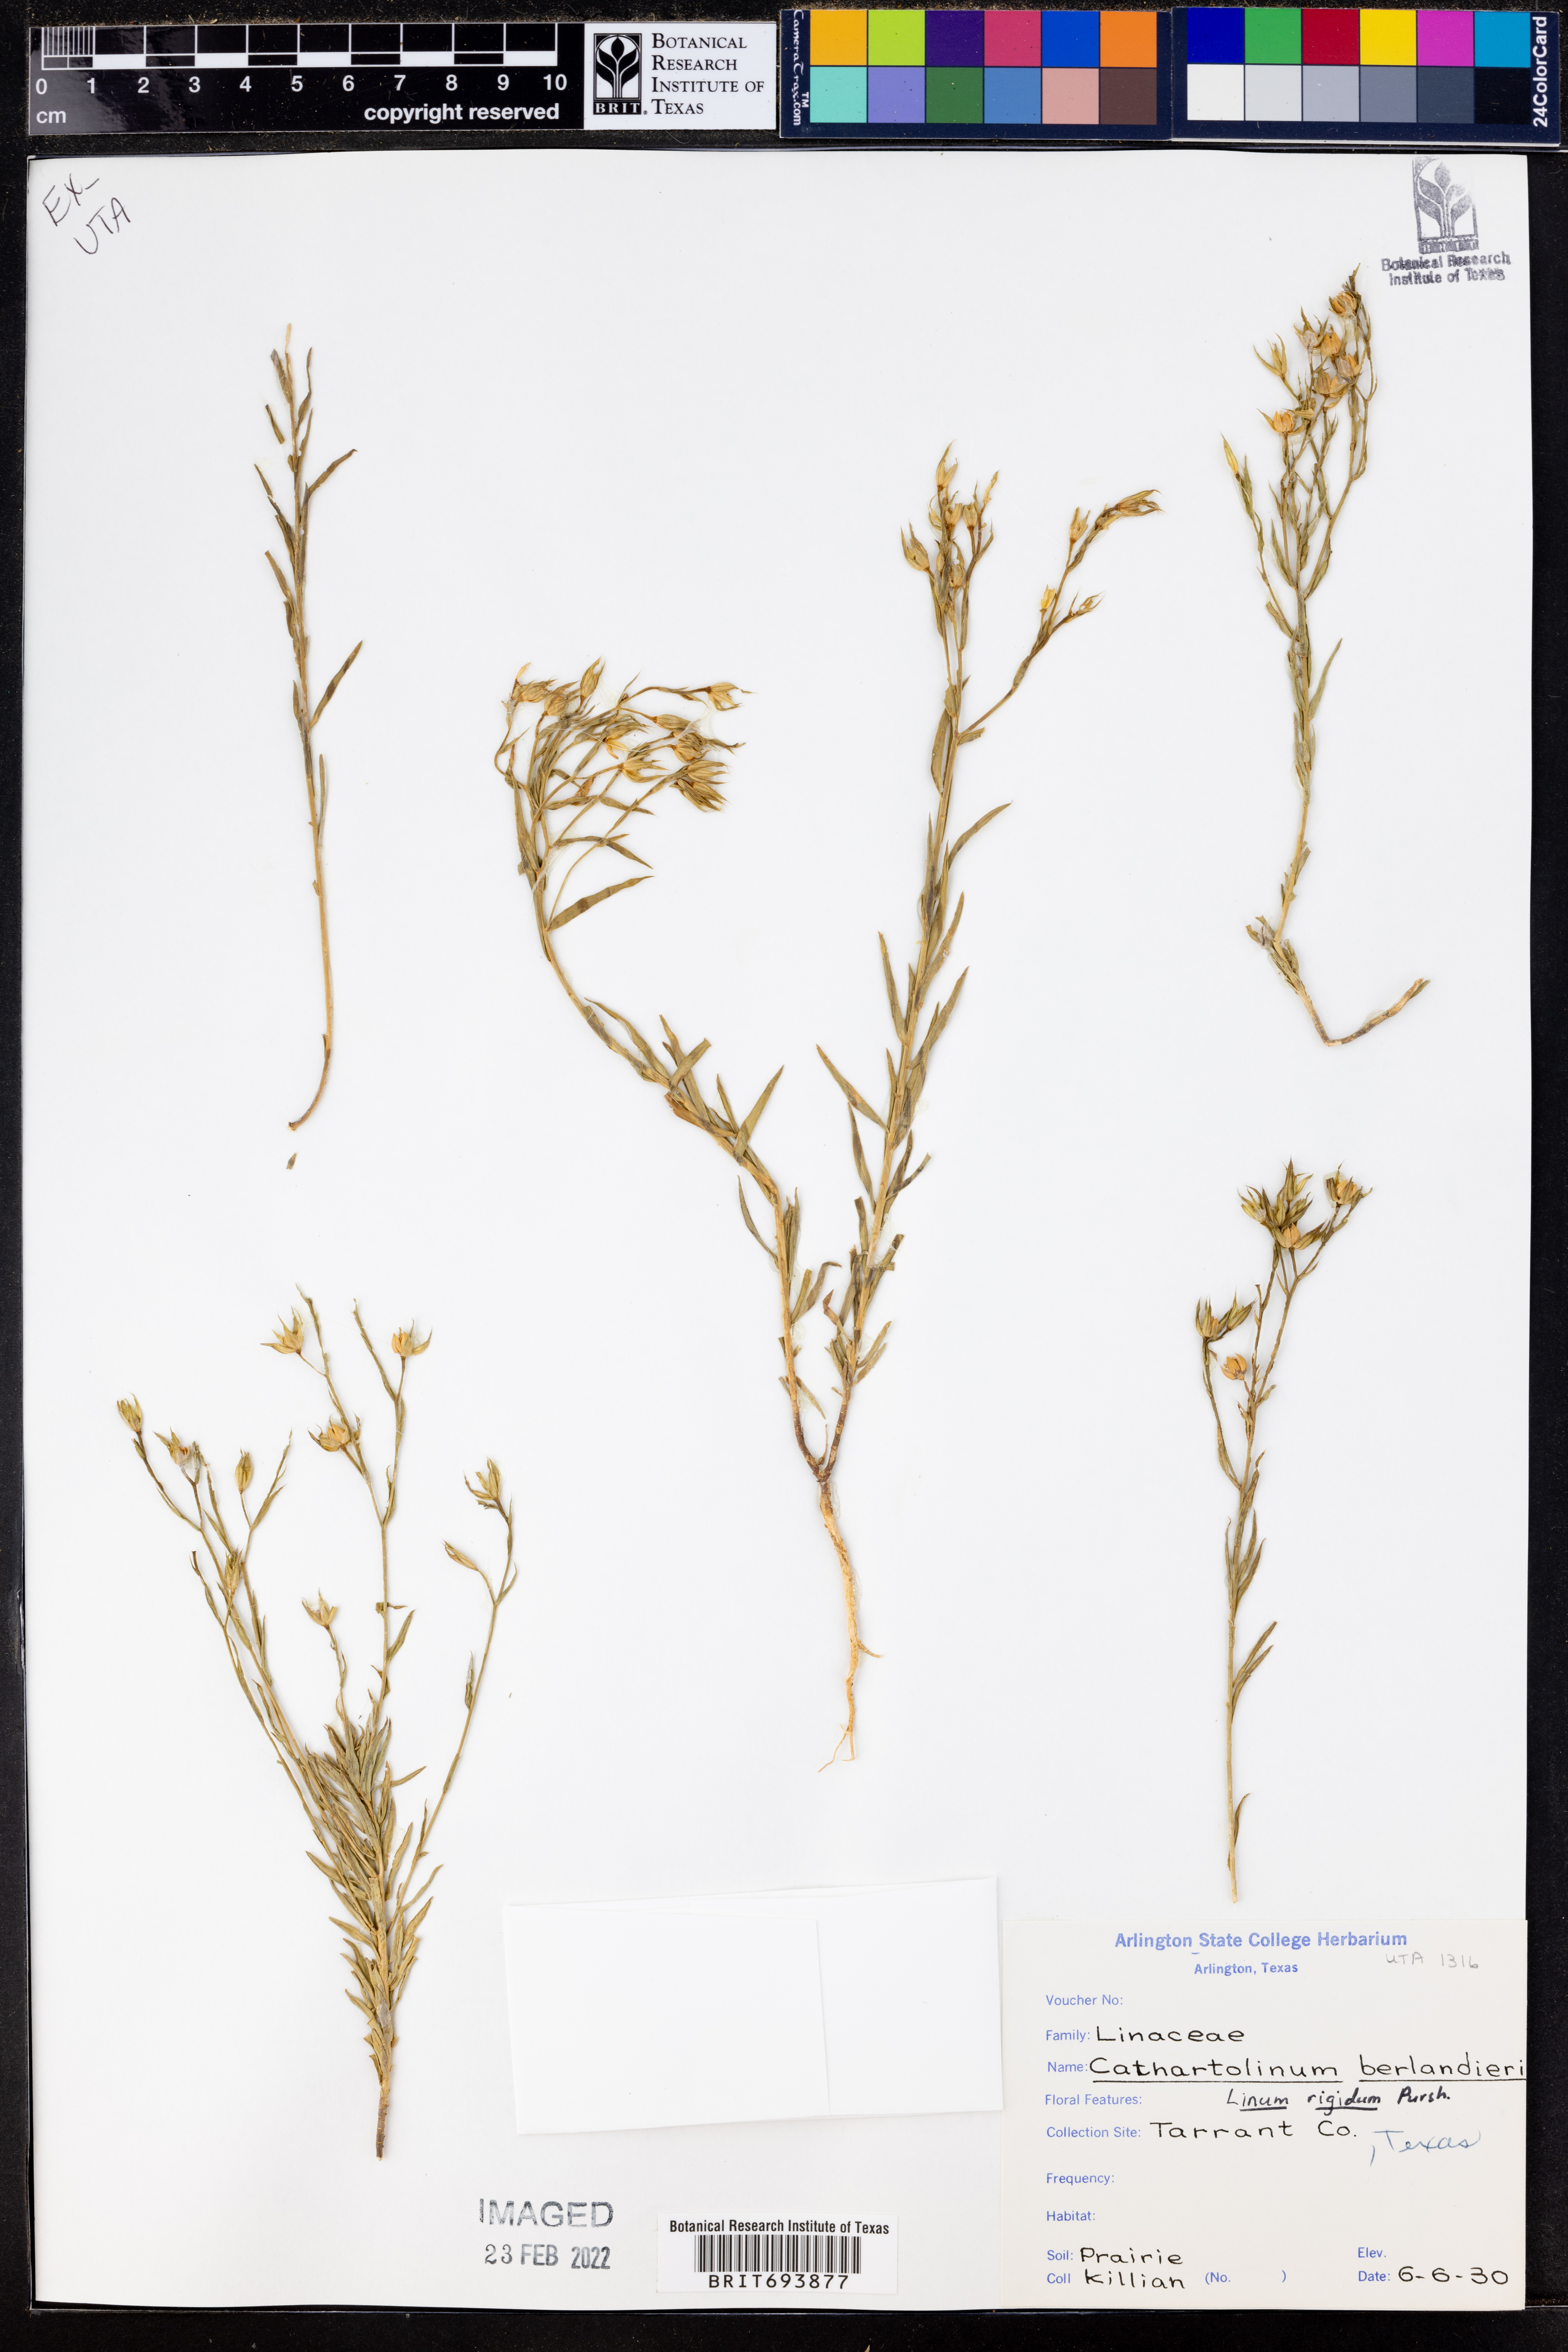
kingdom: Plantae
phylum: Tracheophyta
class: Magnoliopsida
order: Malpighiales
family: Linaceae
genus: Linum
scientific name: Linum rigidum
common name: Stiff-stem flax
